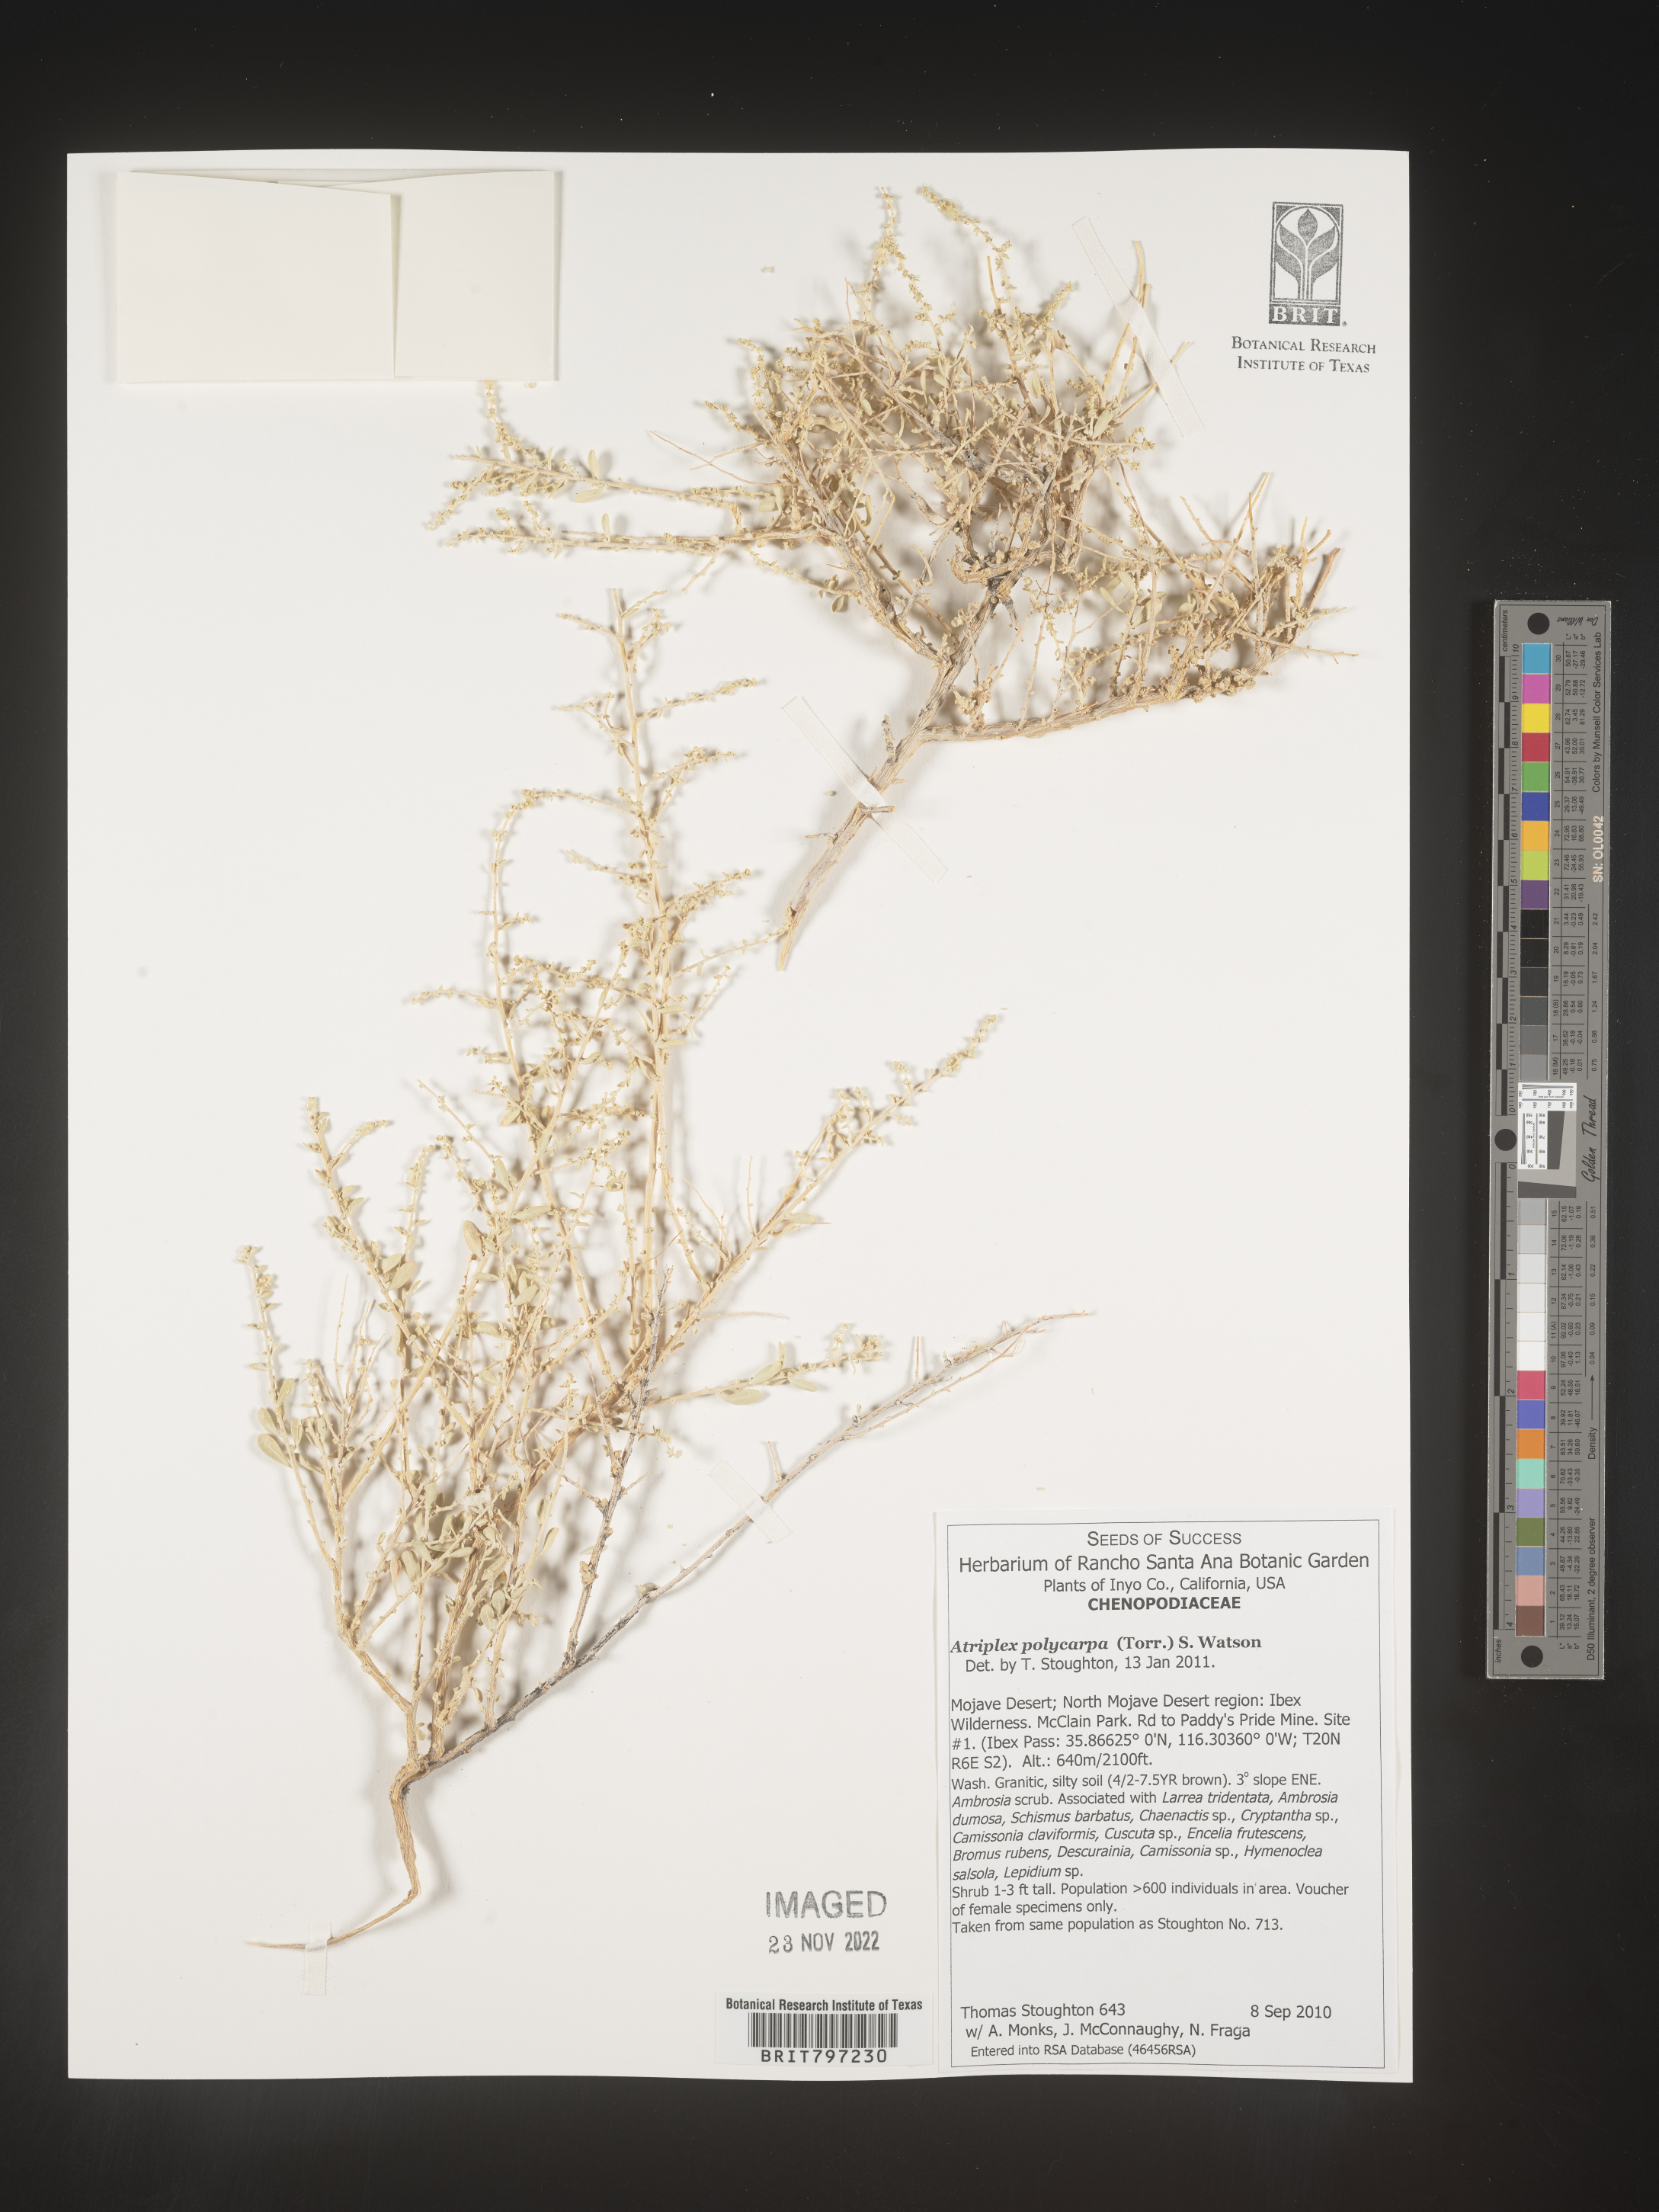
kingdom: Plantae
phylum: Tracheophyta
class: Magnoliopsida
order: Caryophyllales
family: Amaranthaceae
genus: Atriplex
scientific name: Atriplex polycarpa
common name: Desert saltbush
